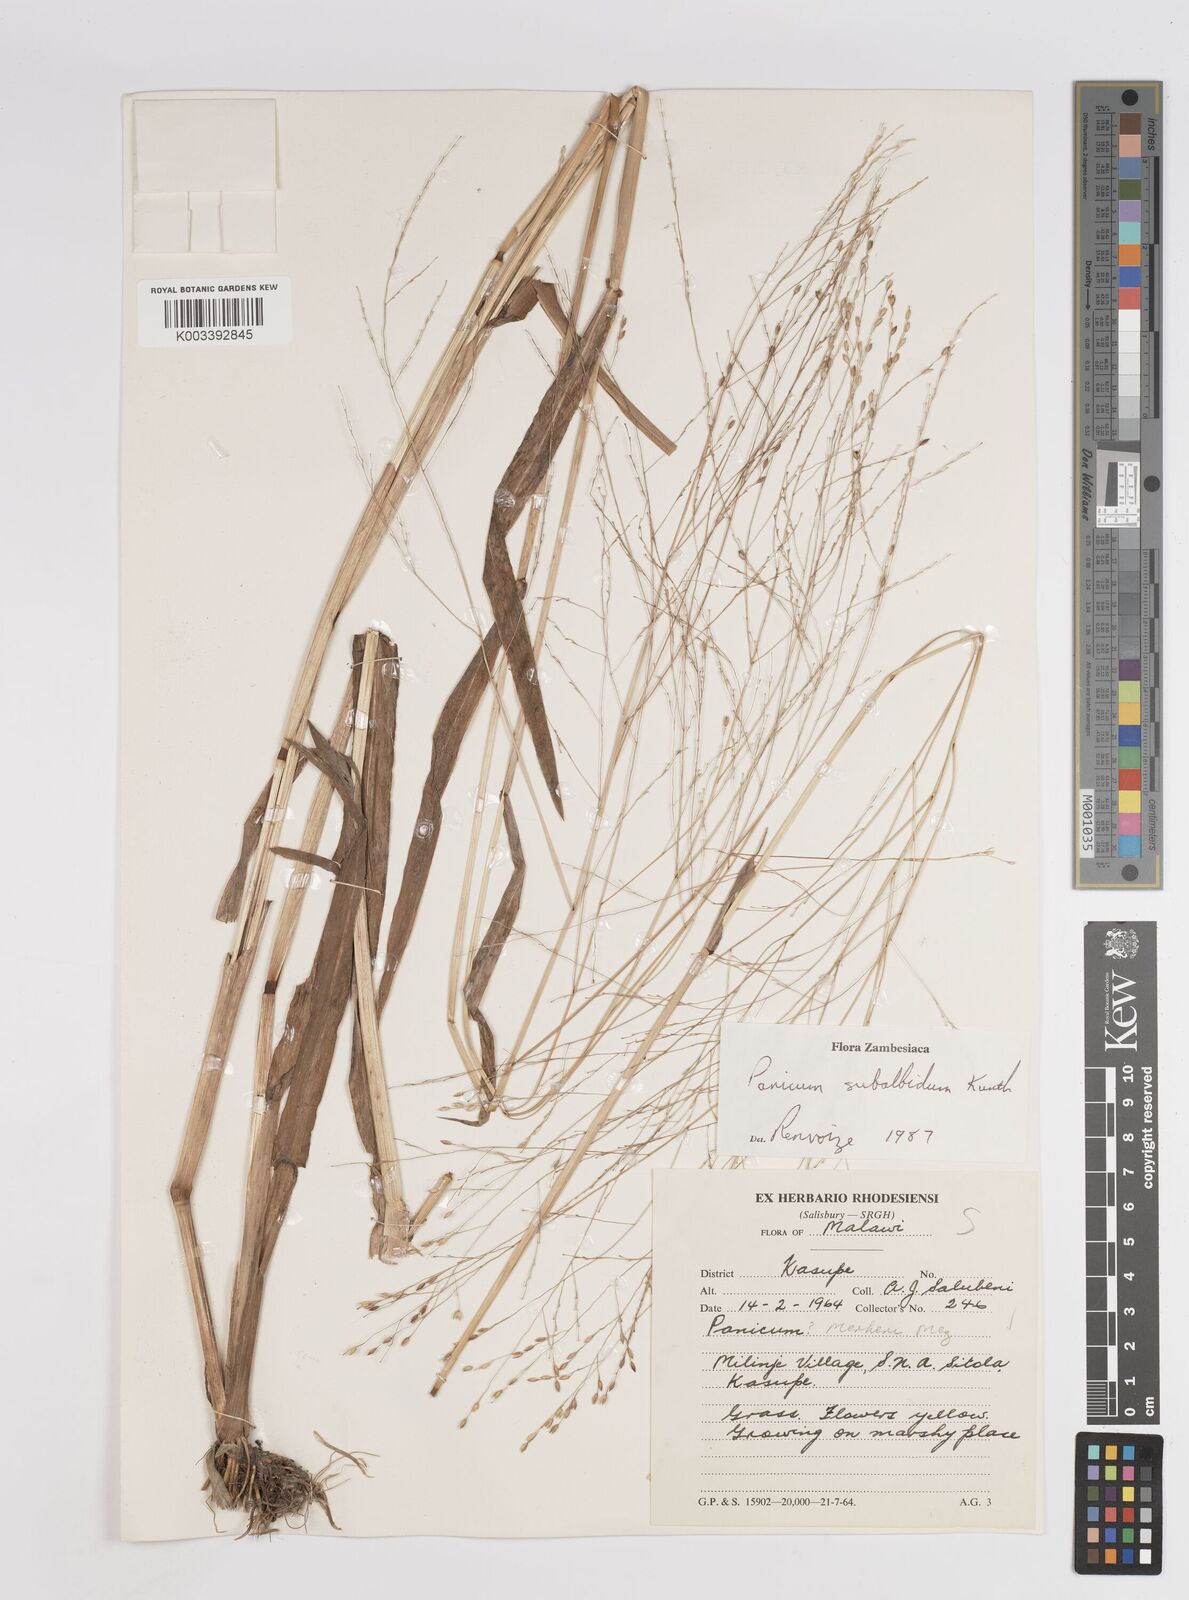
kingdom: Plantae
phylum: Tracheophyta
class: Liliopsida
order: Poales
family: Poaceae
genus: Panicum
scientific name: Panicum subalbidum
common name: Elbow buffalo grass
